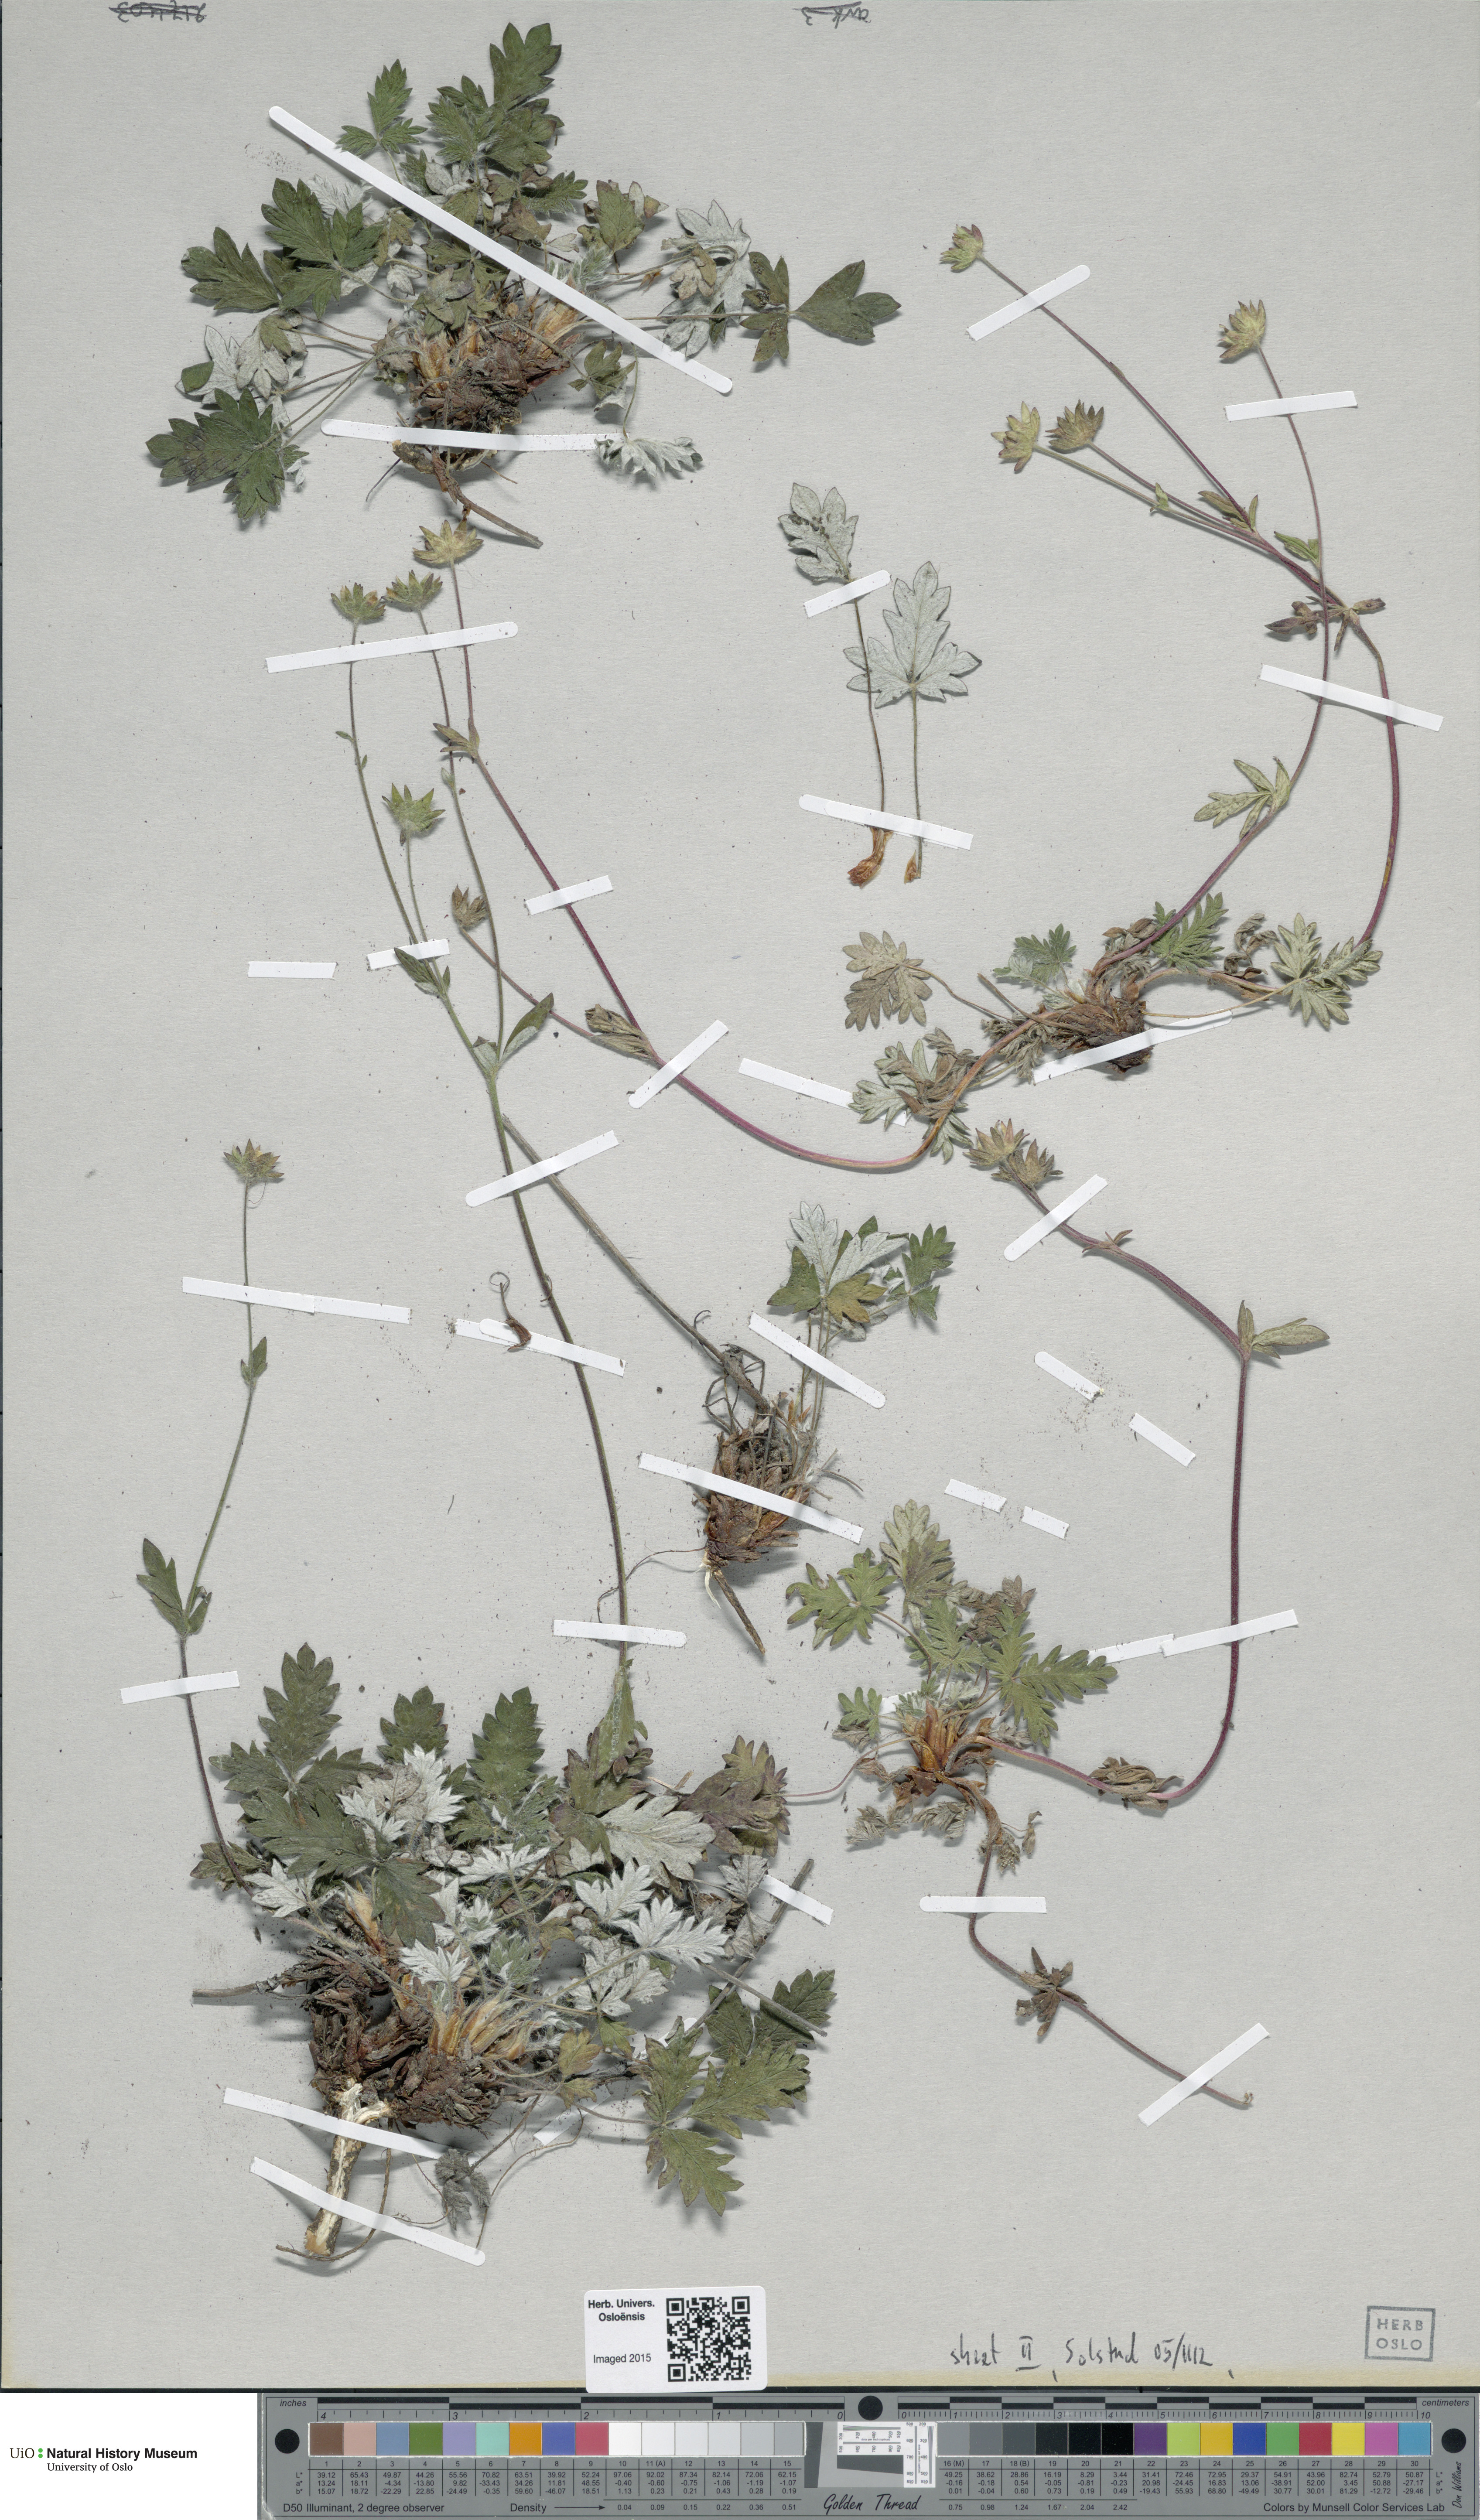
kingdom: Plantae
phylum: Tracheophyta
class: Magnoliopsida
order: Rosales
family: Rosaceae
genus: Potentilla
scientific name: Potentilla arenosa
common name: Bluff cinquefoil
